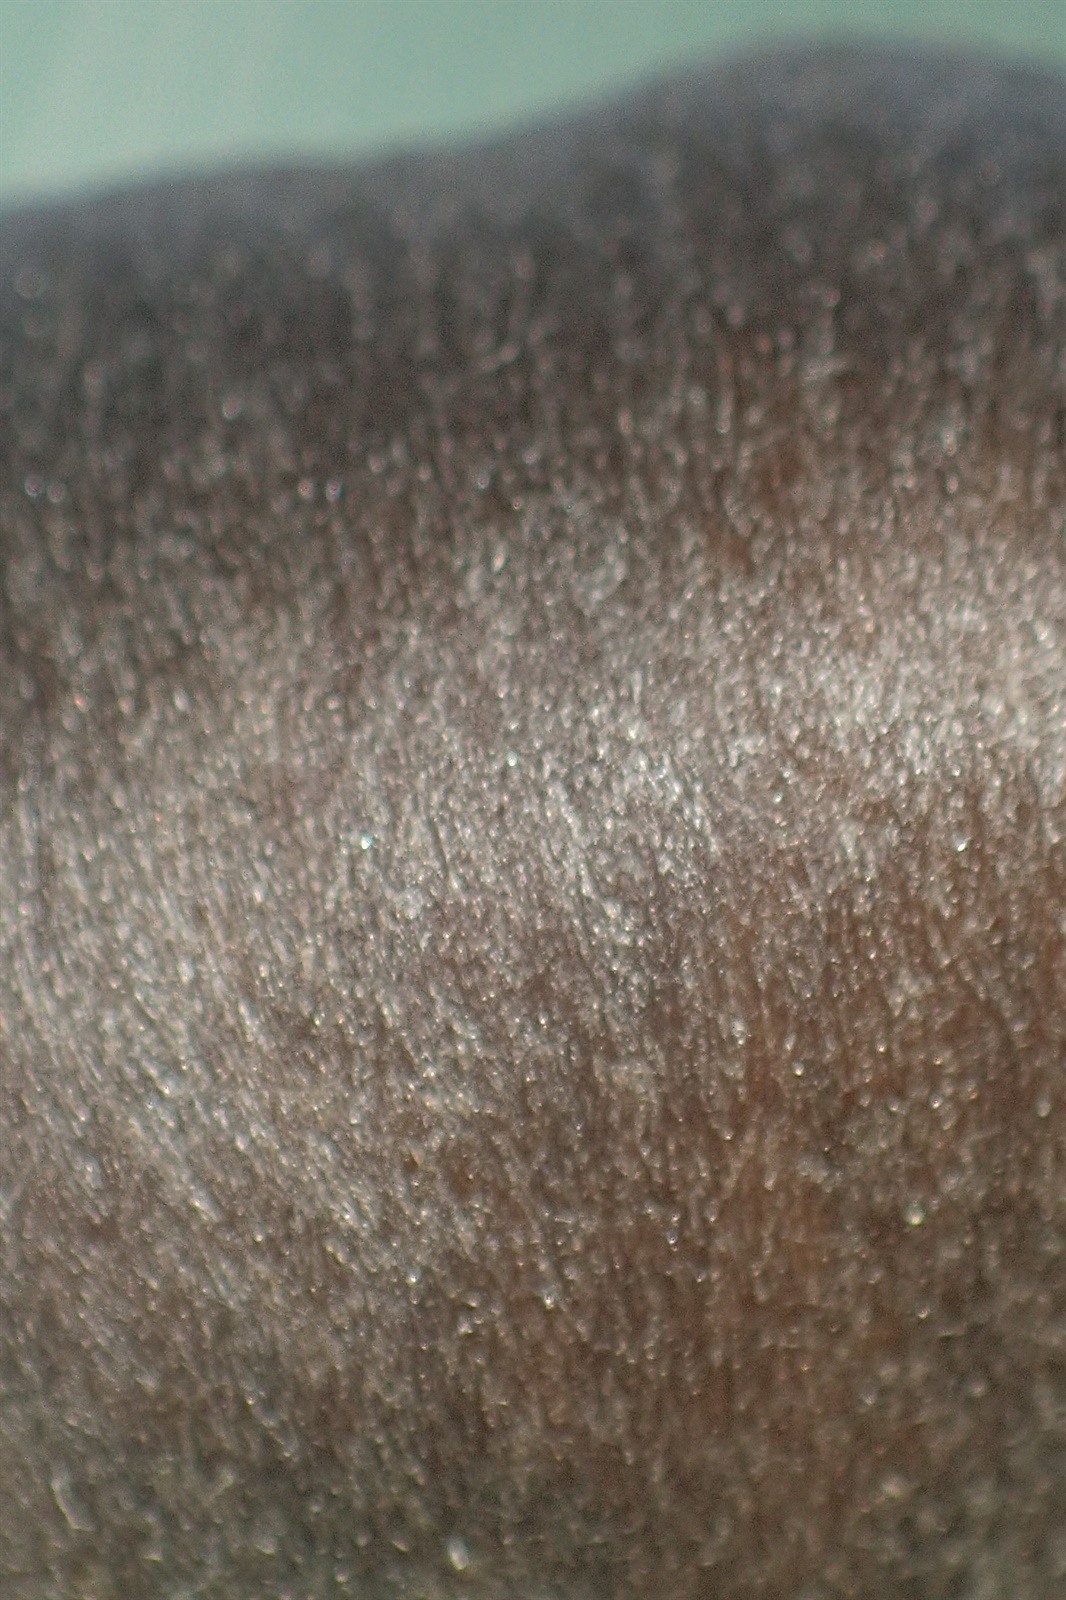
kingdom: Fungi
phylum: Basidiomycota
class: Agaricomycetes
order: Agaricales
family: Entolomataceae
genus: Entoloma
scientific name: Entoloma serpens
